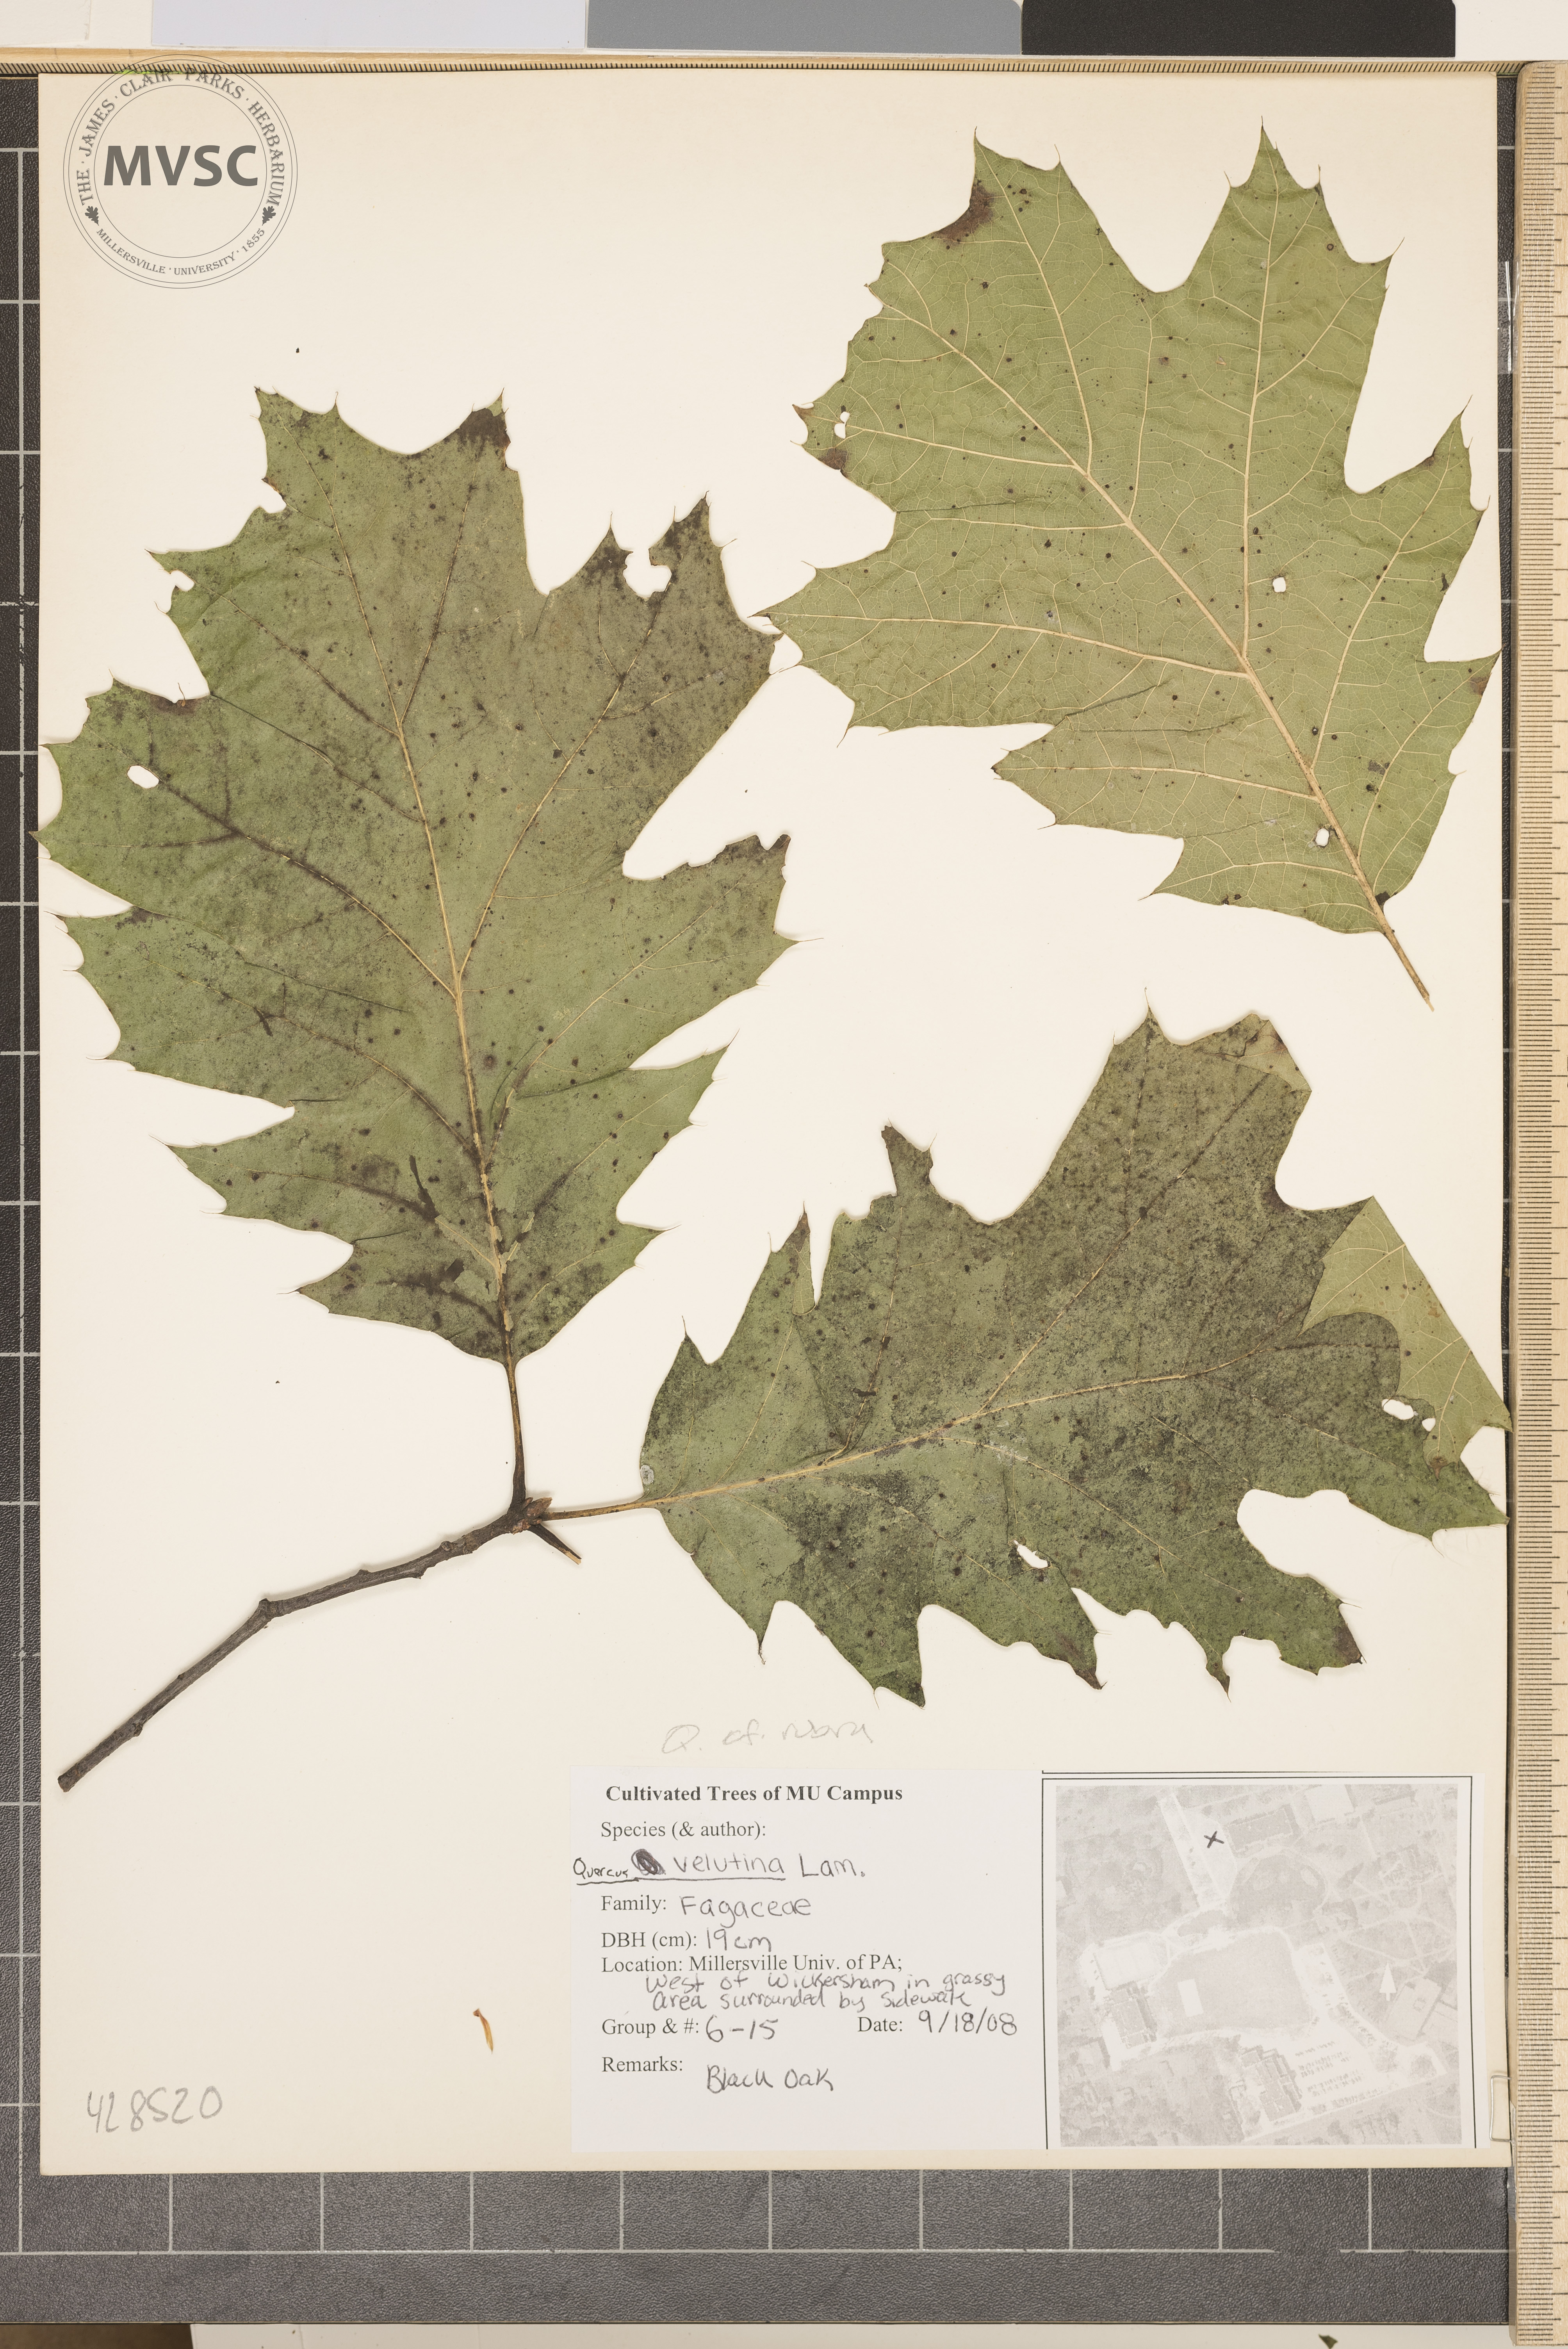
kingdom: Plantae
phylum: Tracheophyta
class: Magnoliopsida
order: Fagales
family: Fagaceae
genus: Quercus
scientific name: Quercus rubra
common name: Red oak
